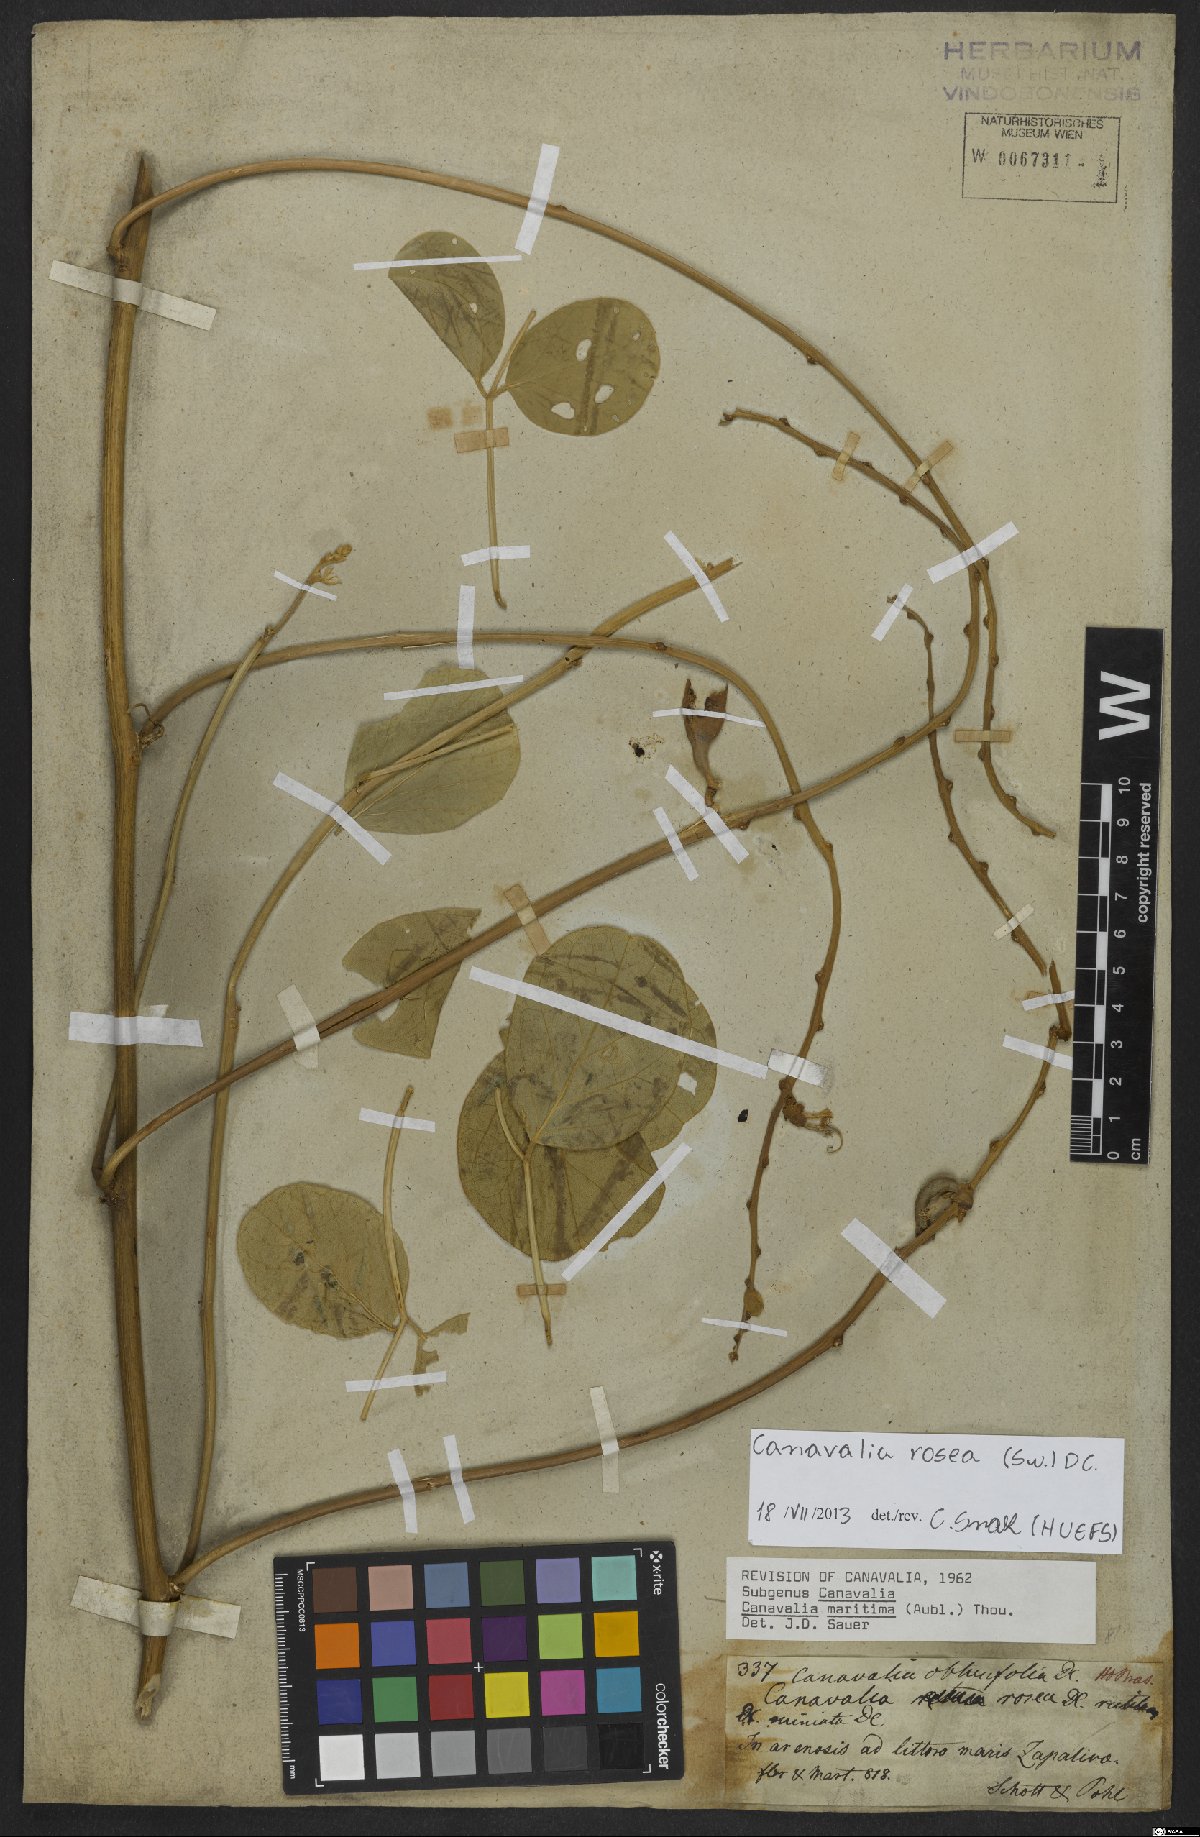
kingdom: Plantae
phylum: Tracheophyta
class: Magnoliopsida
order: Fabales
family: Fabaceae
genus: Canavalia
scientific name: Canavalia rosea
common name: Beach-bean
